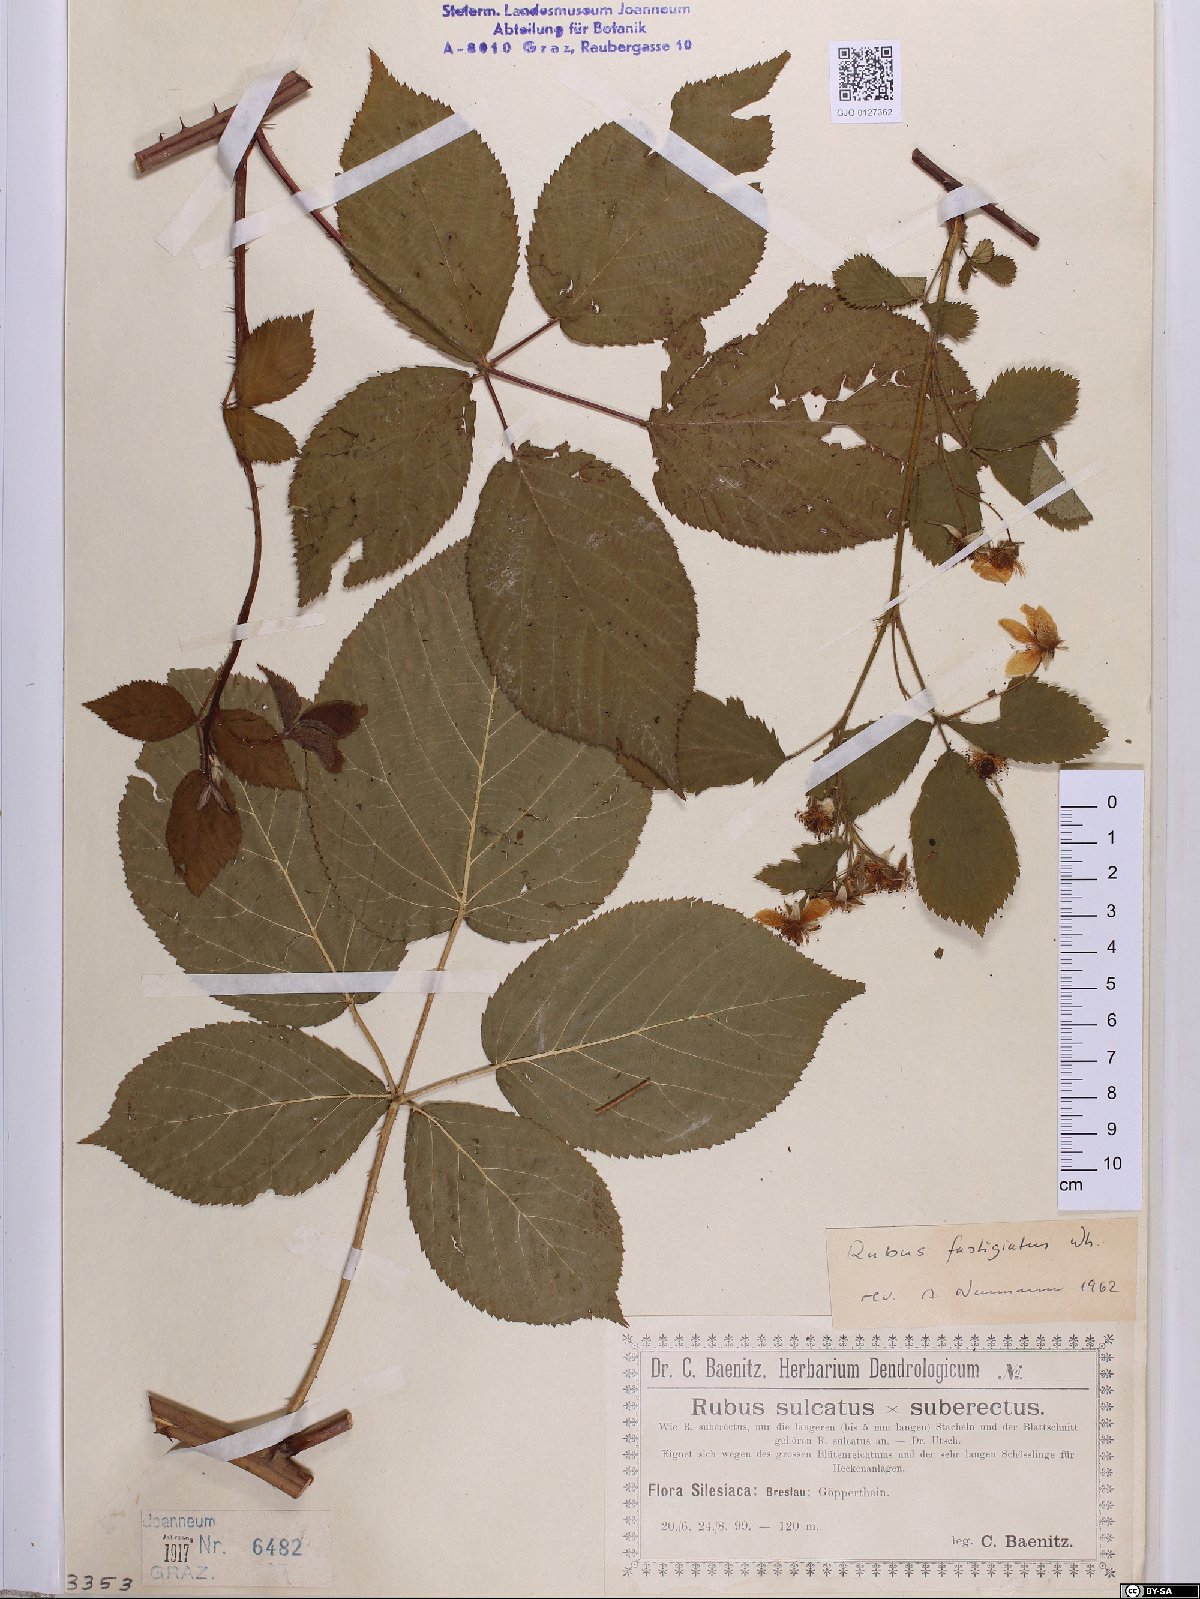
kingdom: Plantae
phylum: Tracheophyta
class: Magnoliopsida
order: Rosales
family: Rosaceae
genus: Rubus
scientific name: Rubus polonicus
